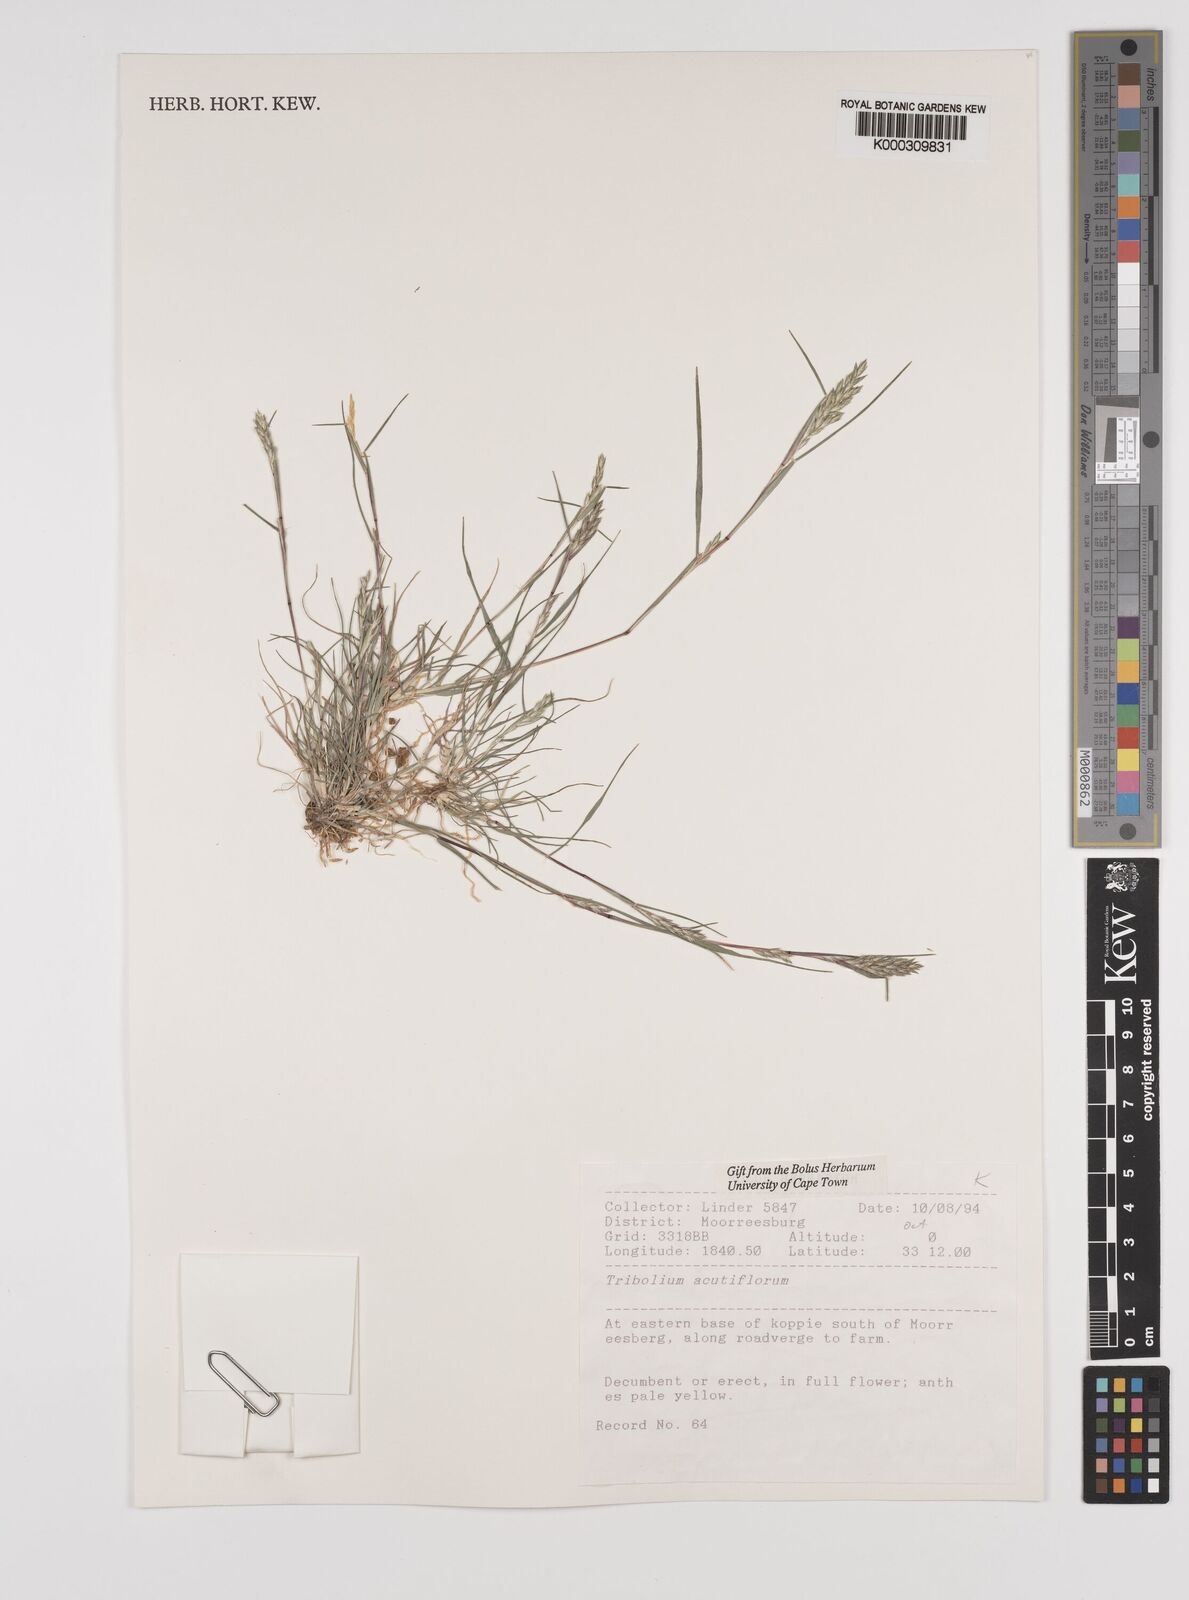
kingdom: Plantae
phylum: Tracheophyta
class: Liliopsida
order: Poales
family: Poaceae
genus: Tribolium
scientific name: Tribolium acutiflorum
